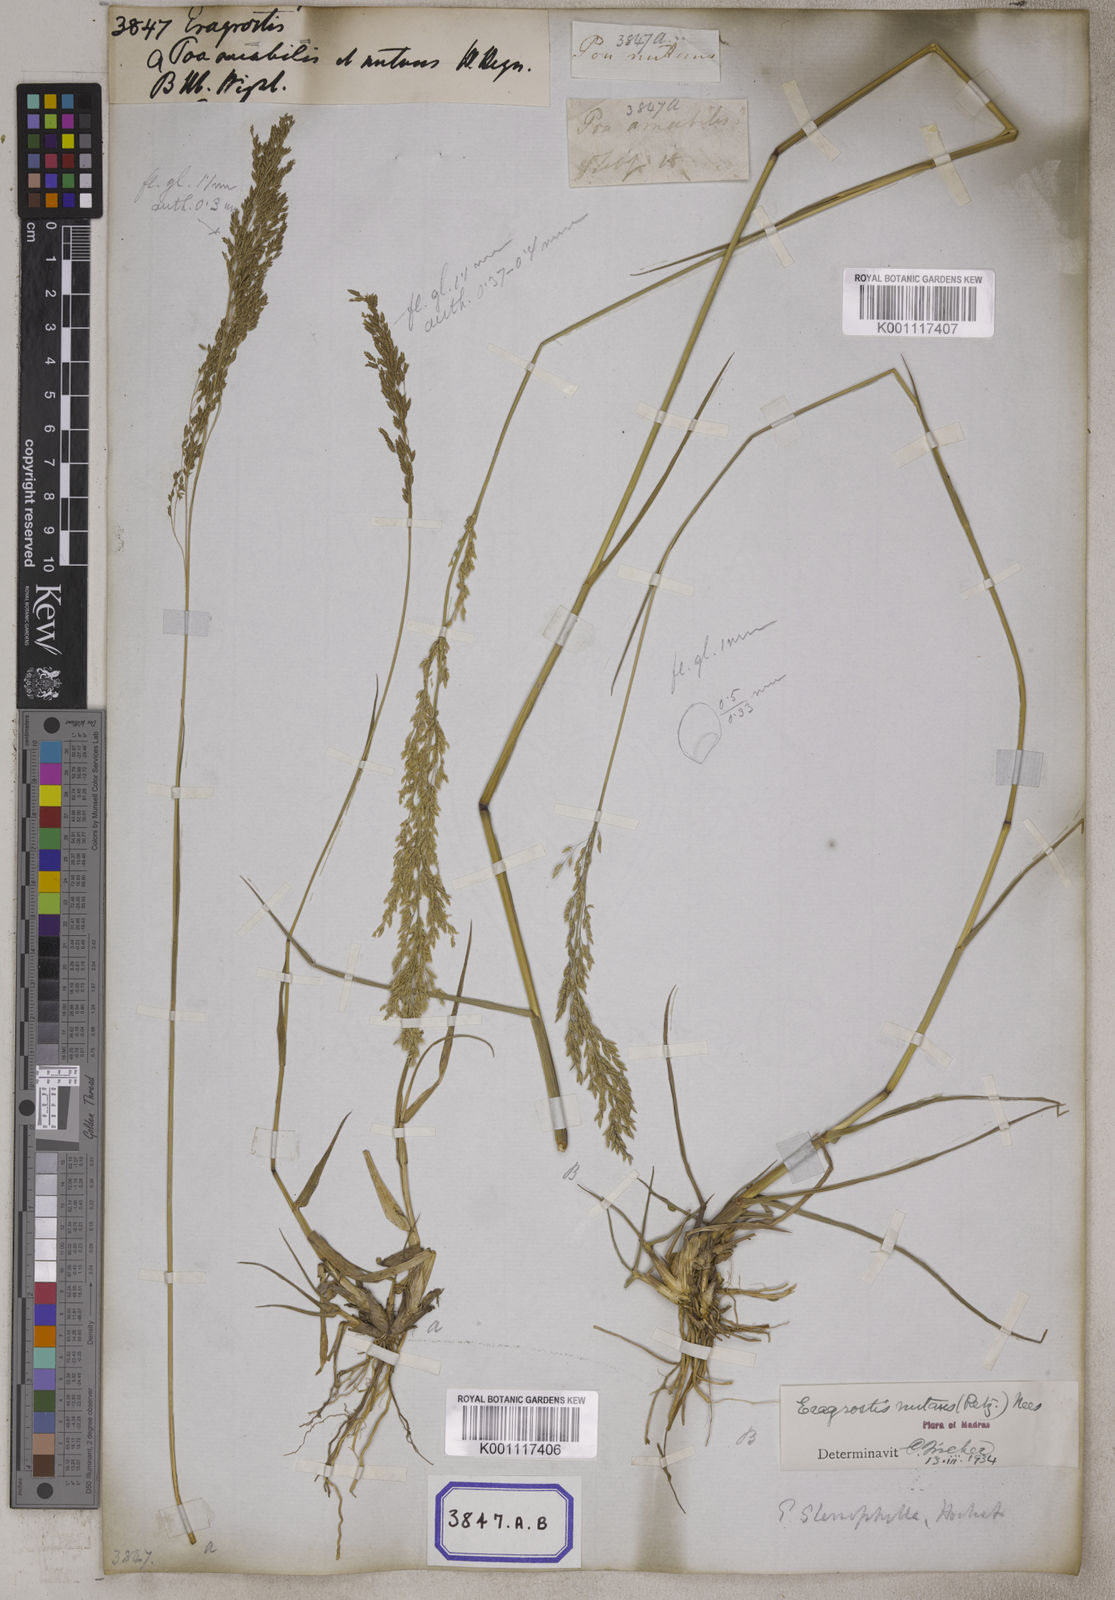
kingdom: Plantae
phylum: Tracheophyta
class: Liliopsida
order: Poales
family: Poaceae
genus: Eragrostis
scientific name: Eragrostis
